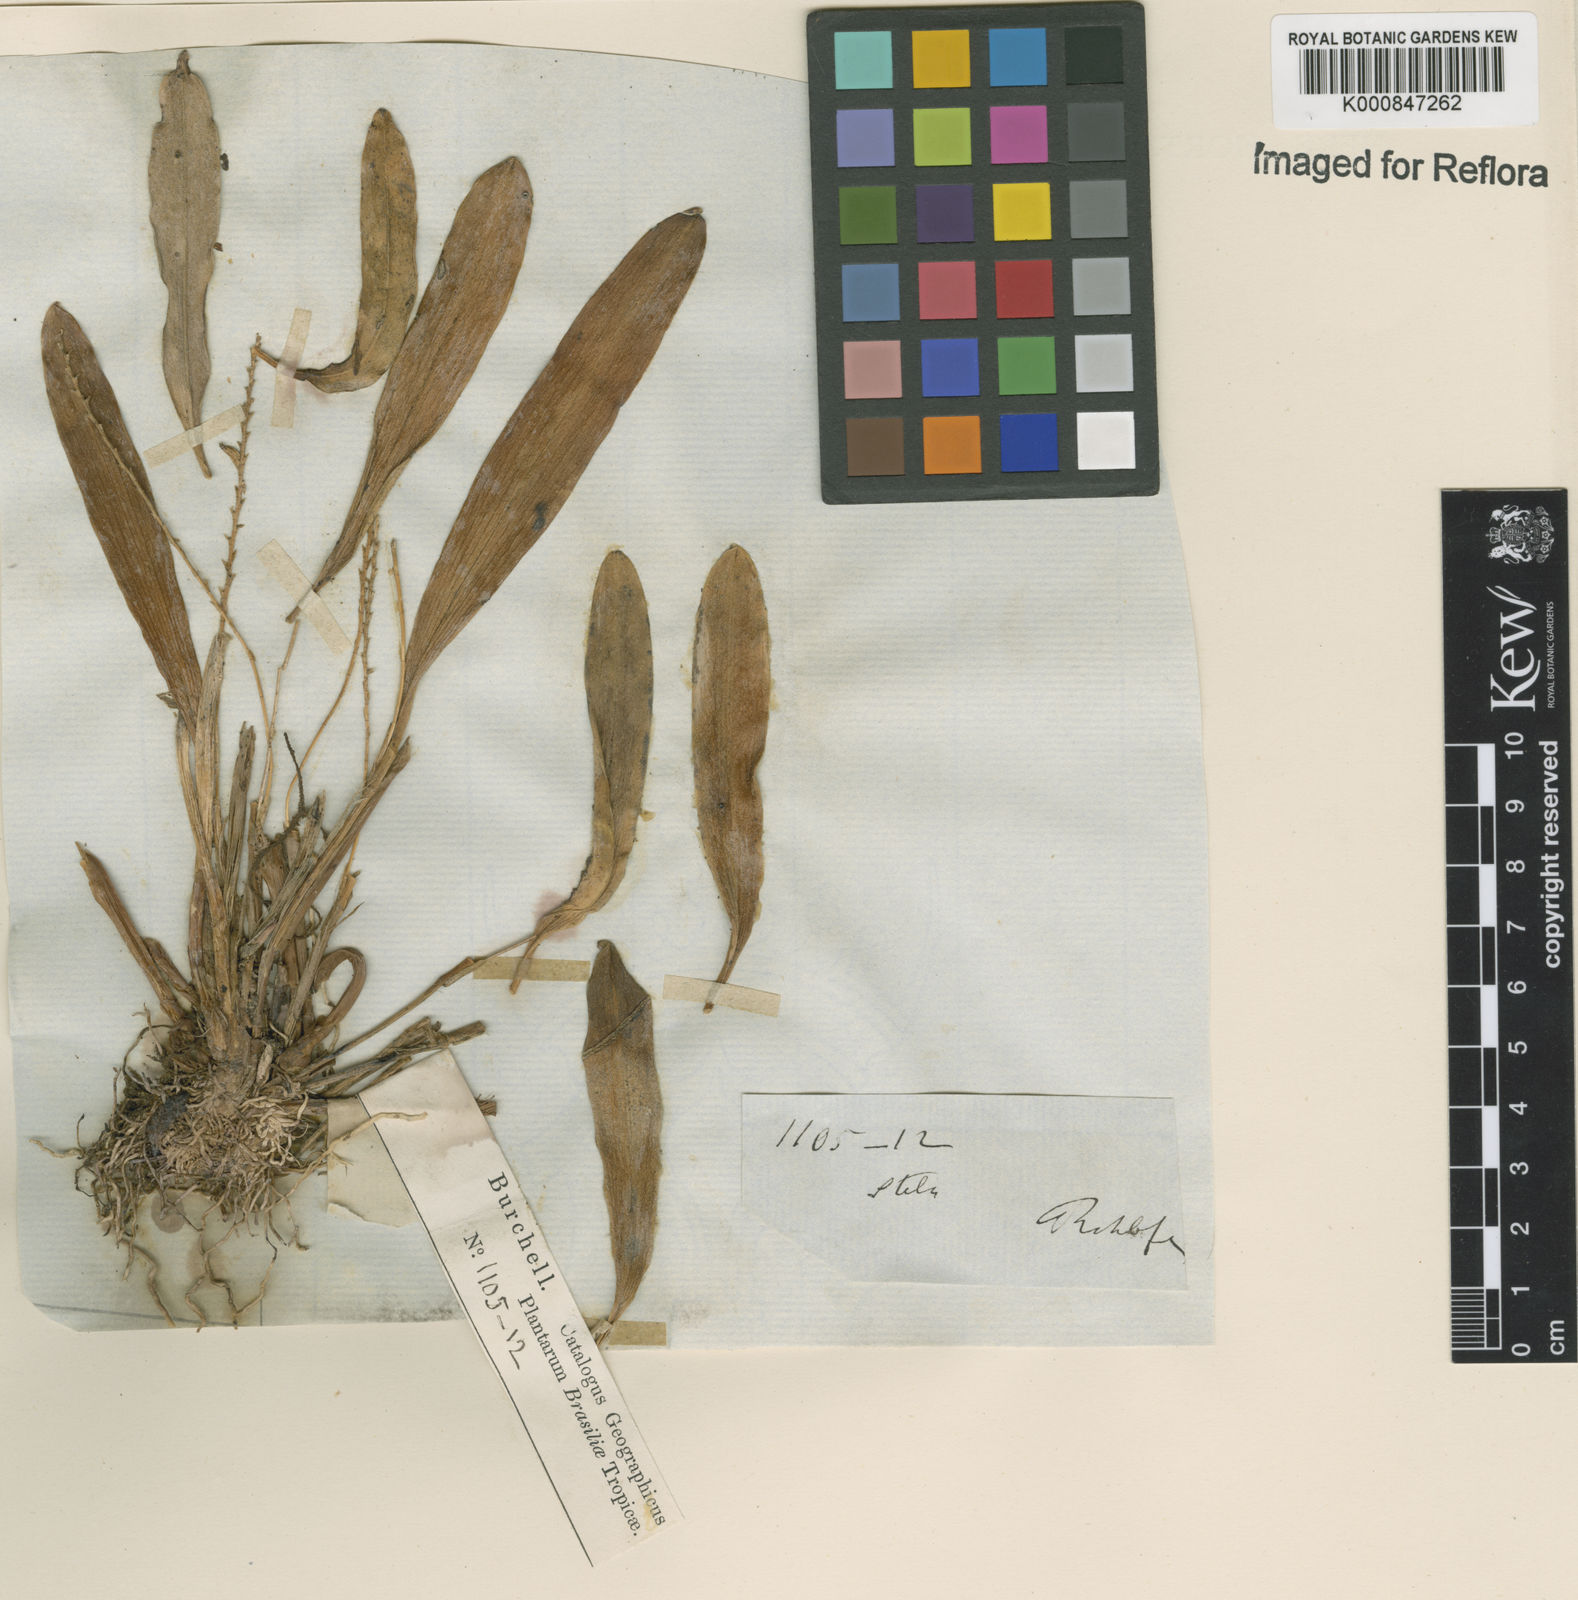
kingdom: Plantae
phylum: Tracheophyta
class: Liliopsida
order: Asparagales
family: Orchidaceae
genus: Stelis
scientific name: Stelis
